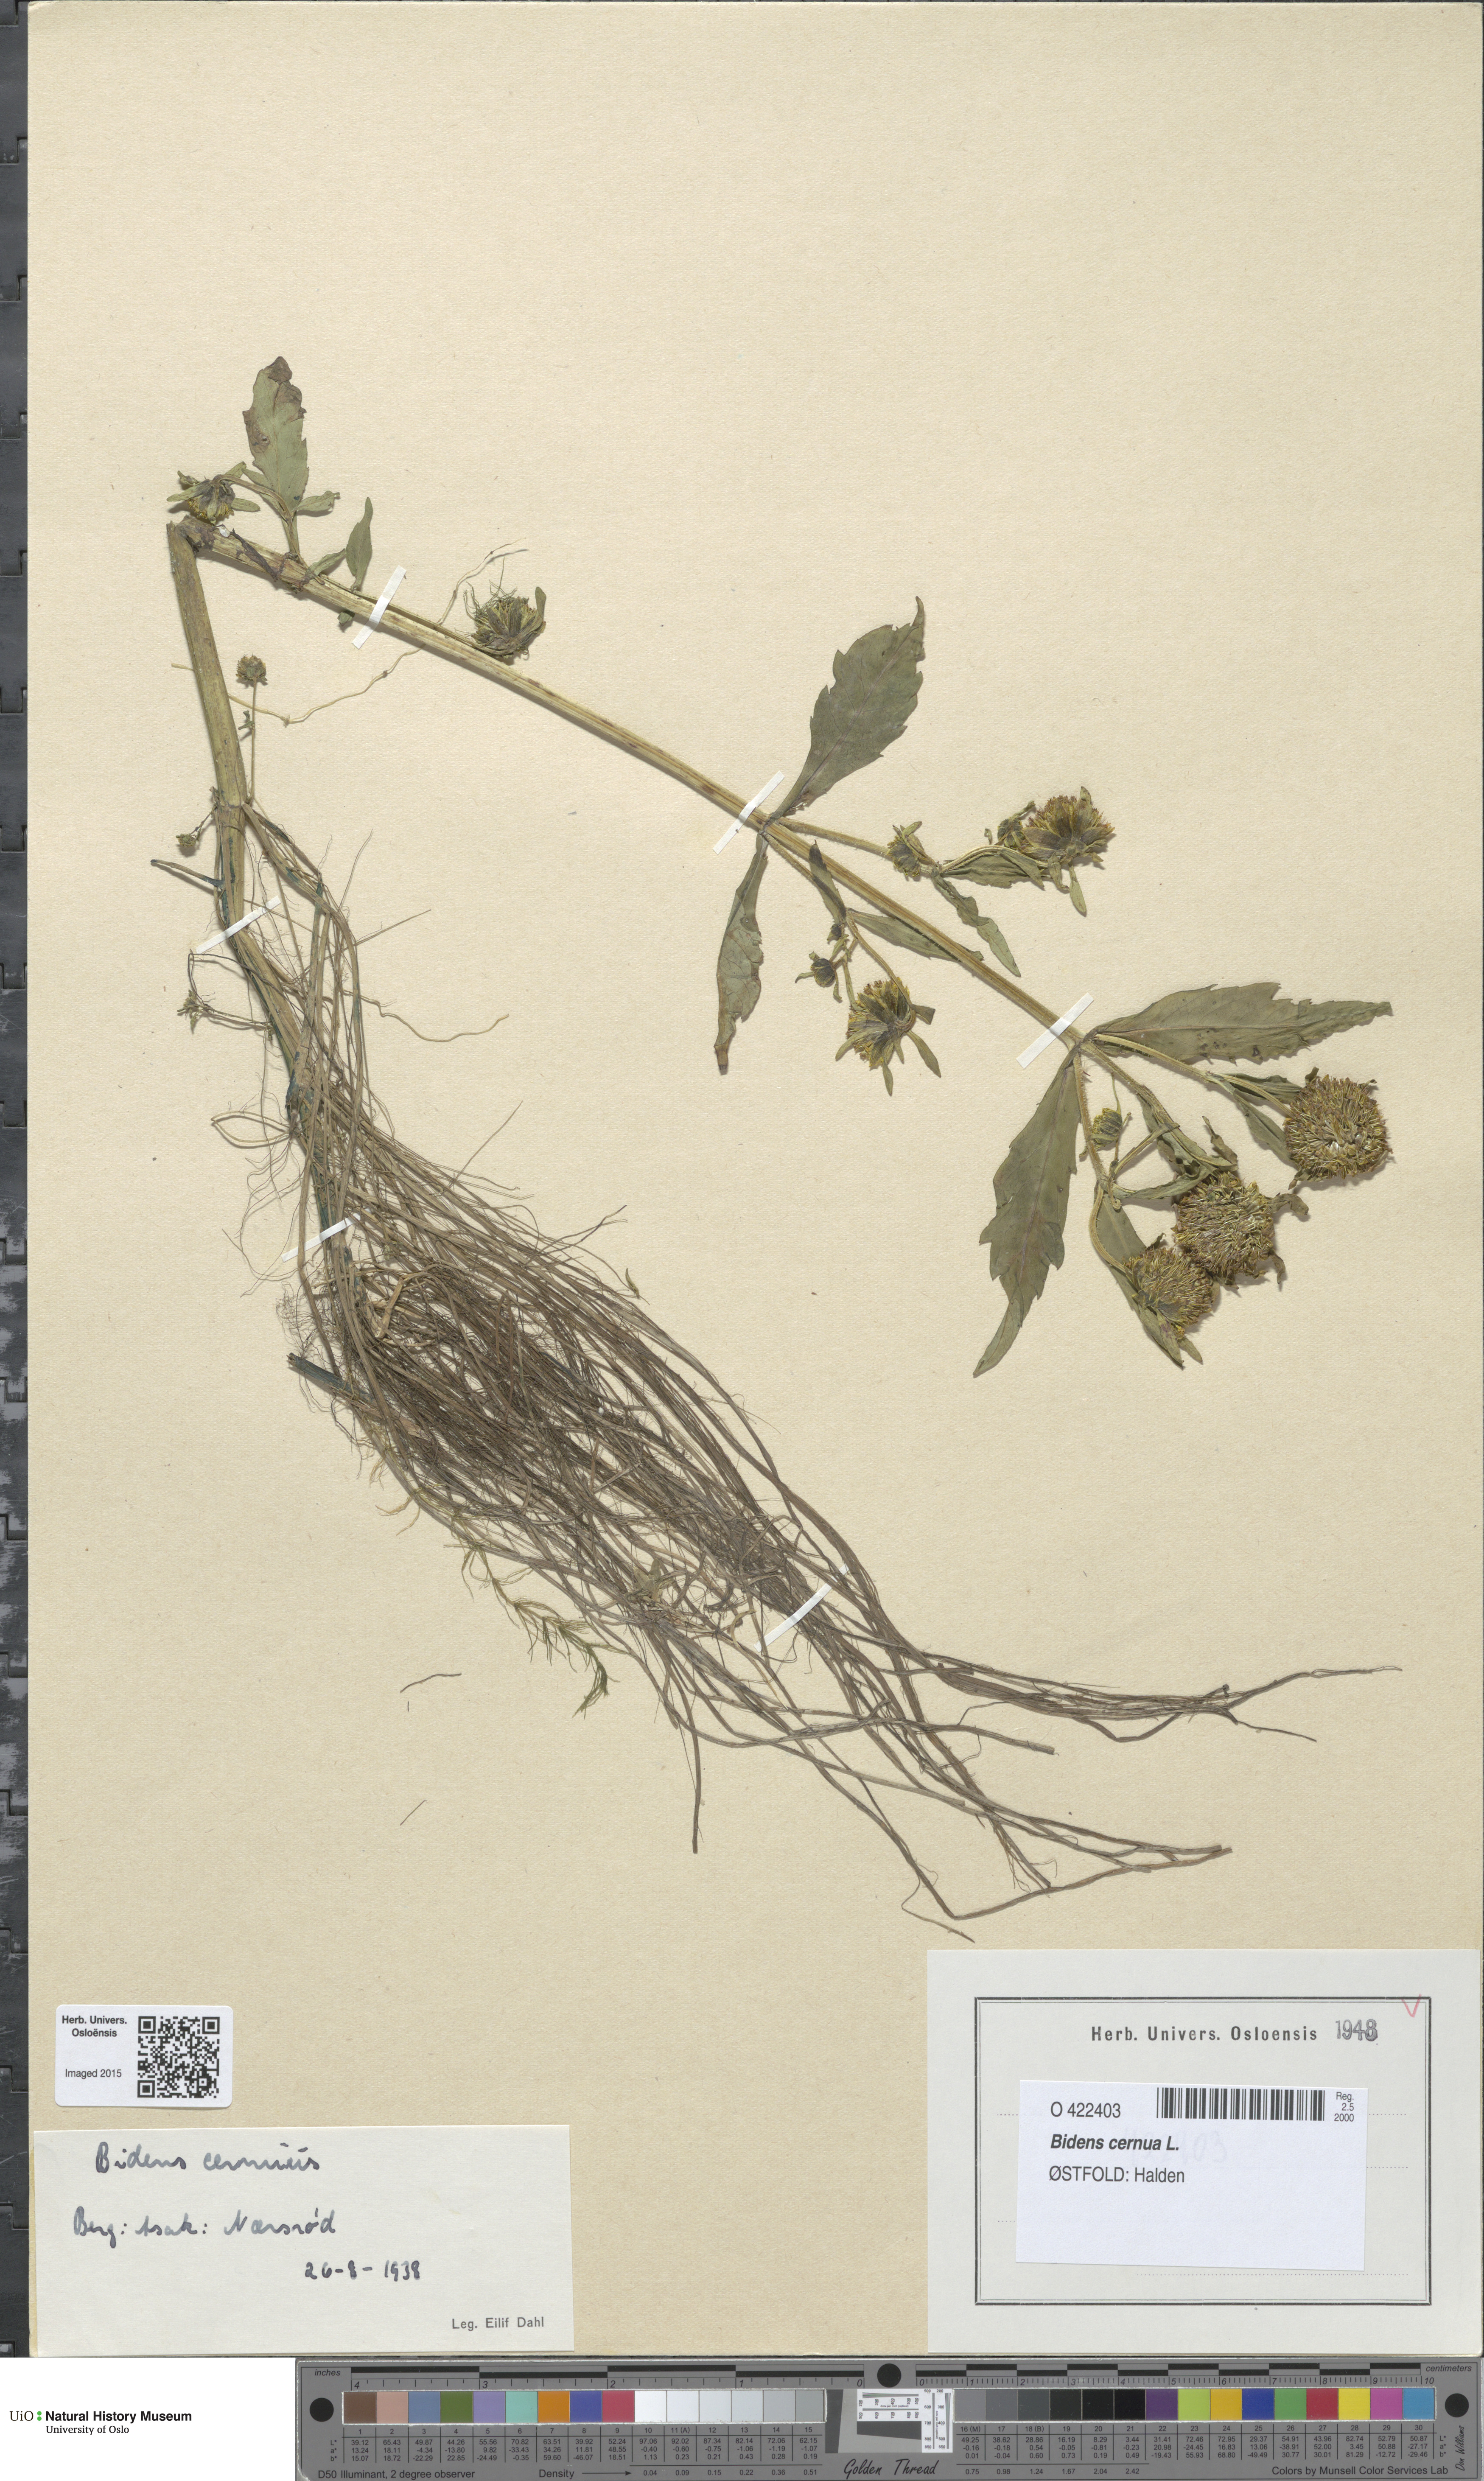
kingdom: Plantae
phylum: Tracheophyta
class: Magnoliopsida
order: Asterales
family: Asteraceae
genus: Bidens
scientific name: Bidens cernua
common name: Nodding bur-marigold
